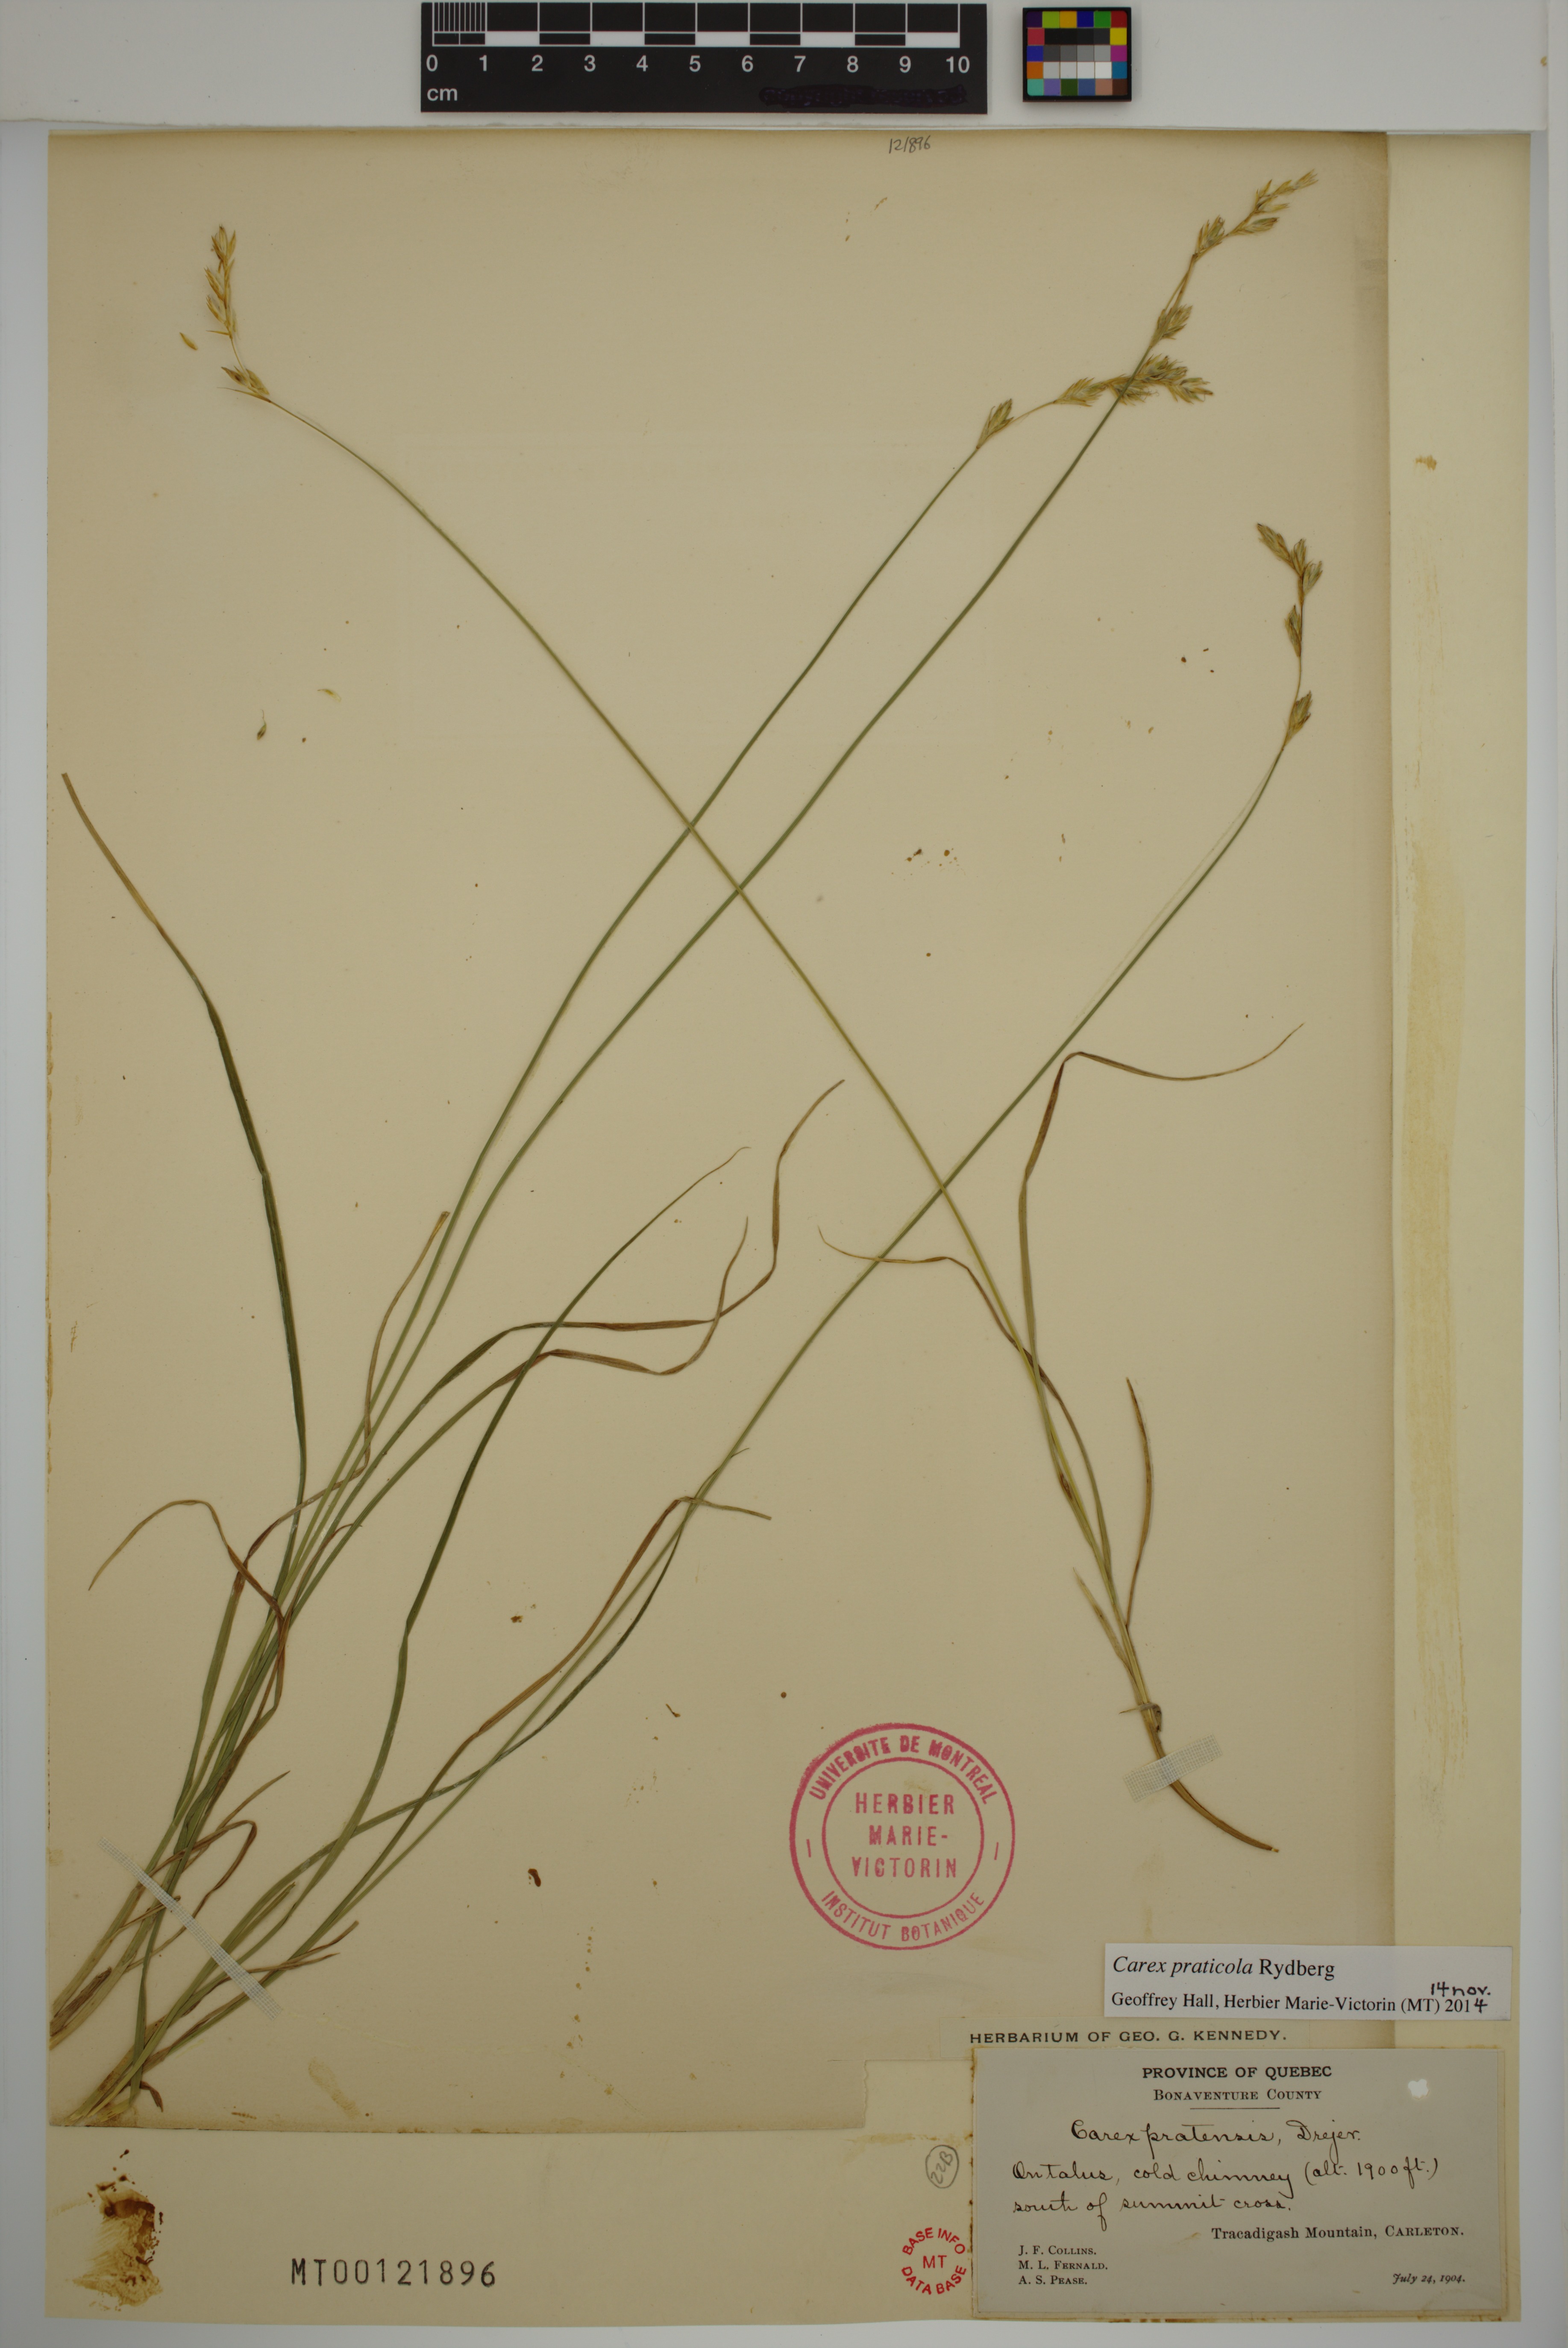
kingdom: Plantae
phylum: Tracheophyta
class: Liliopsida
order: Poales
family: Cyperaceae
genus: Carex
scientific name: Carex praticola
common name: Large-fruited oval sedge
